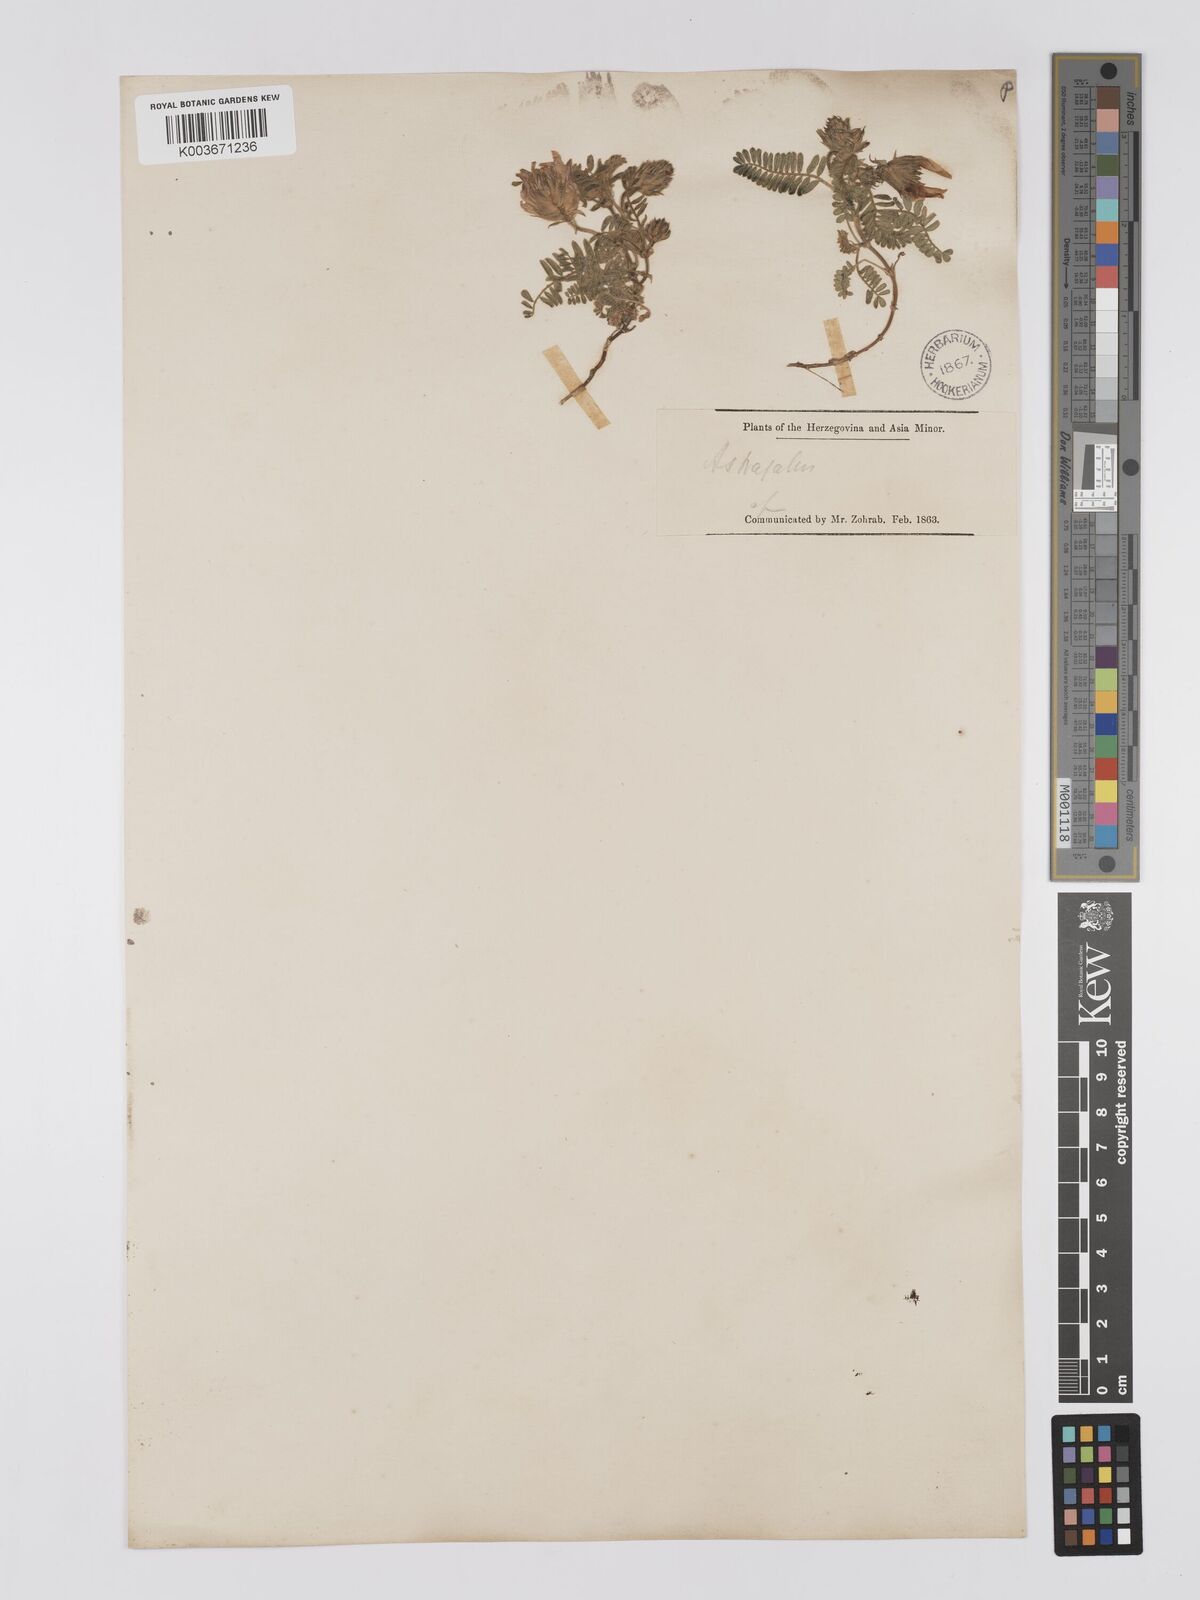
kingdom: Plantae
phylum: Tracheophyta
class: Magnoliopsida
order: Fabales
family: Fabaceae
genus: Astragalus
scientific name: Astragalus lineatus
